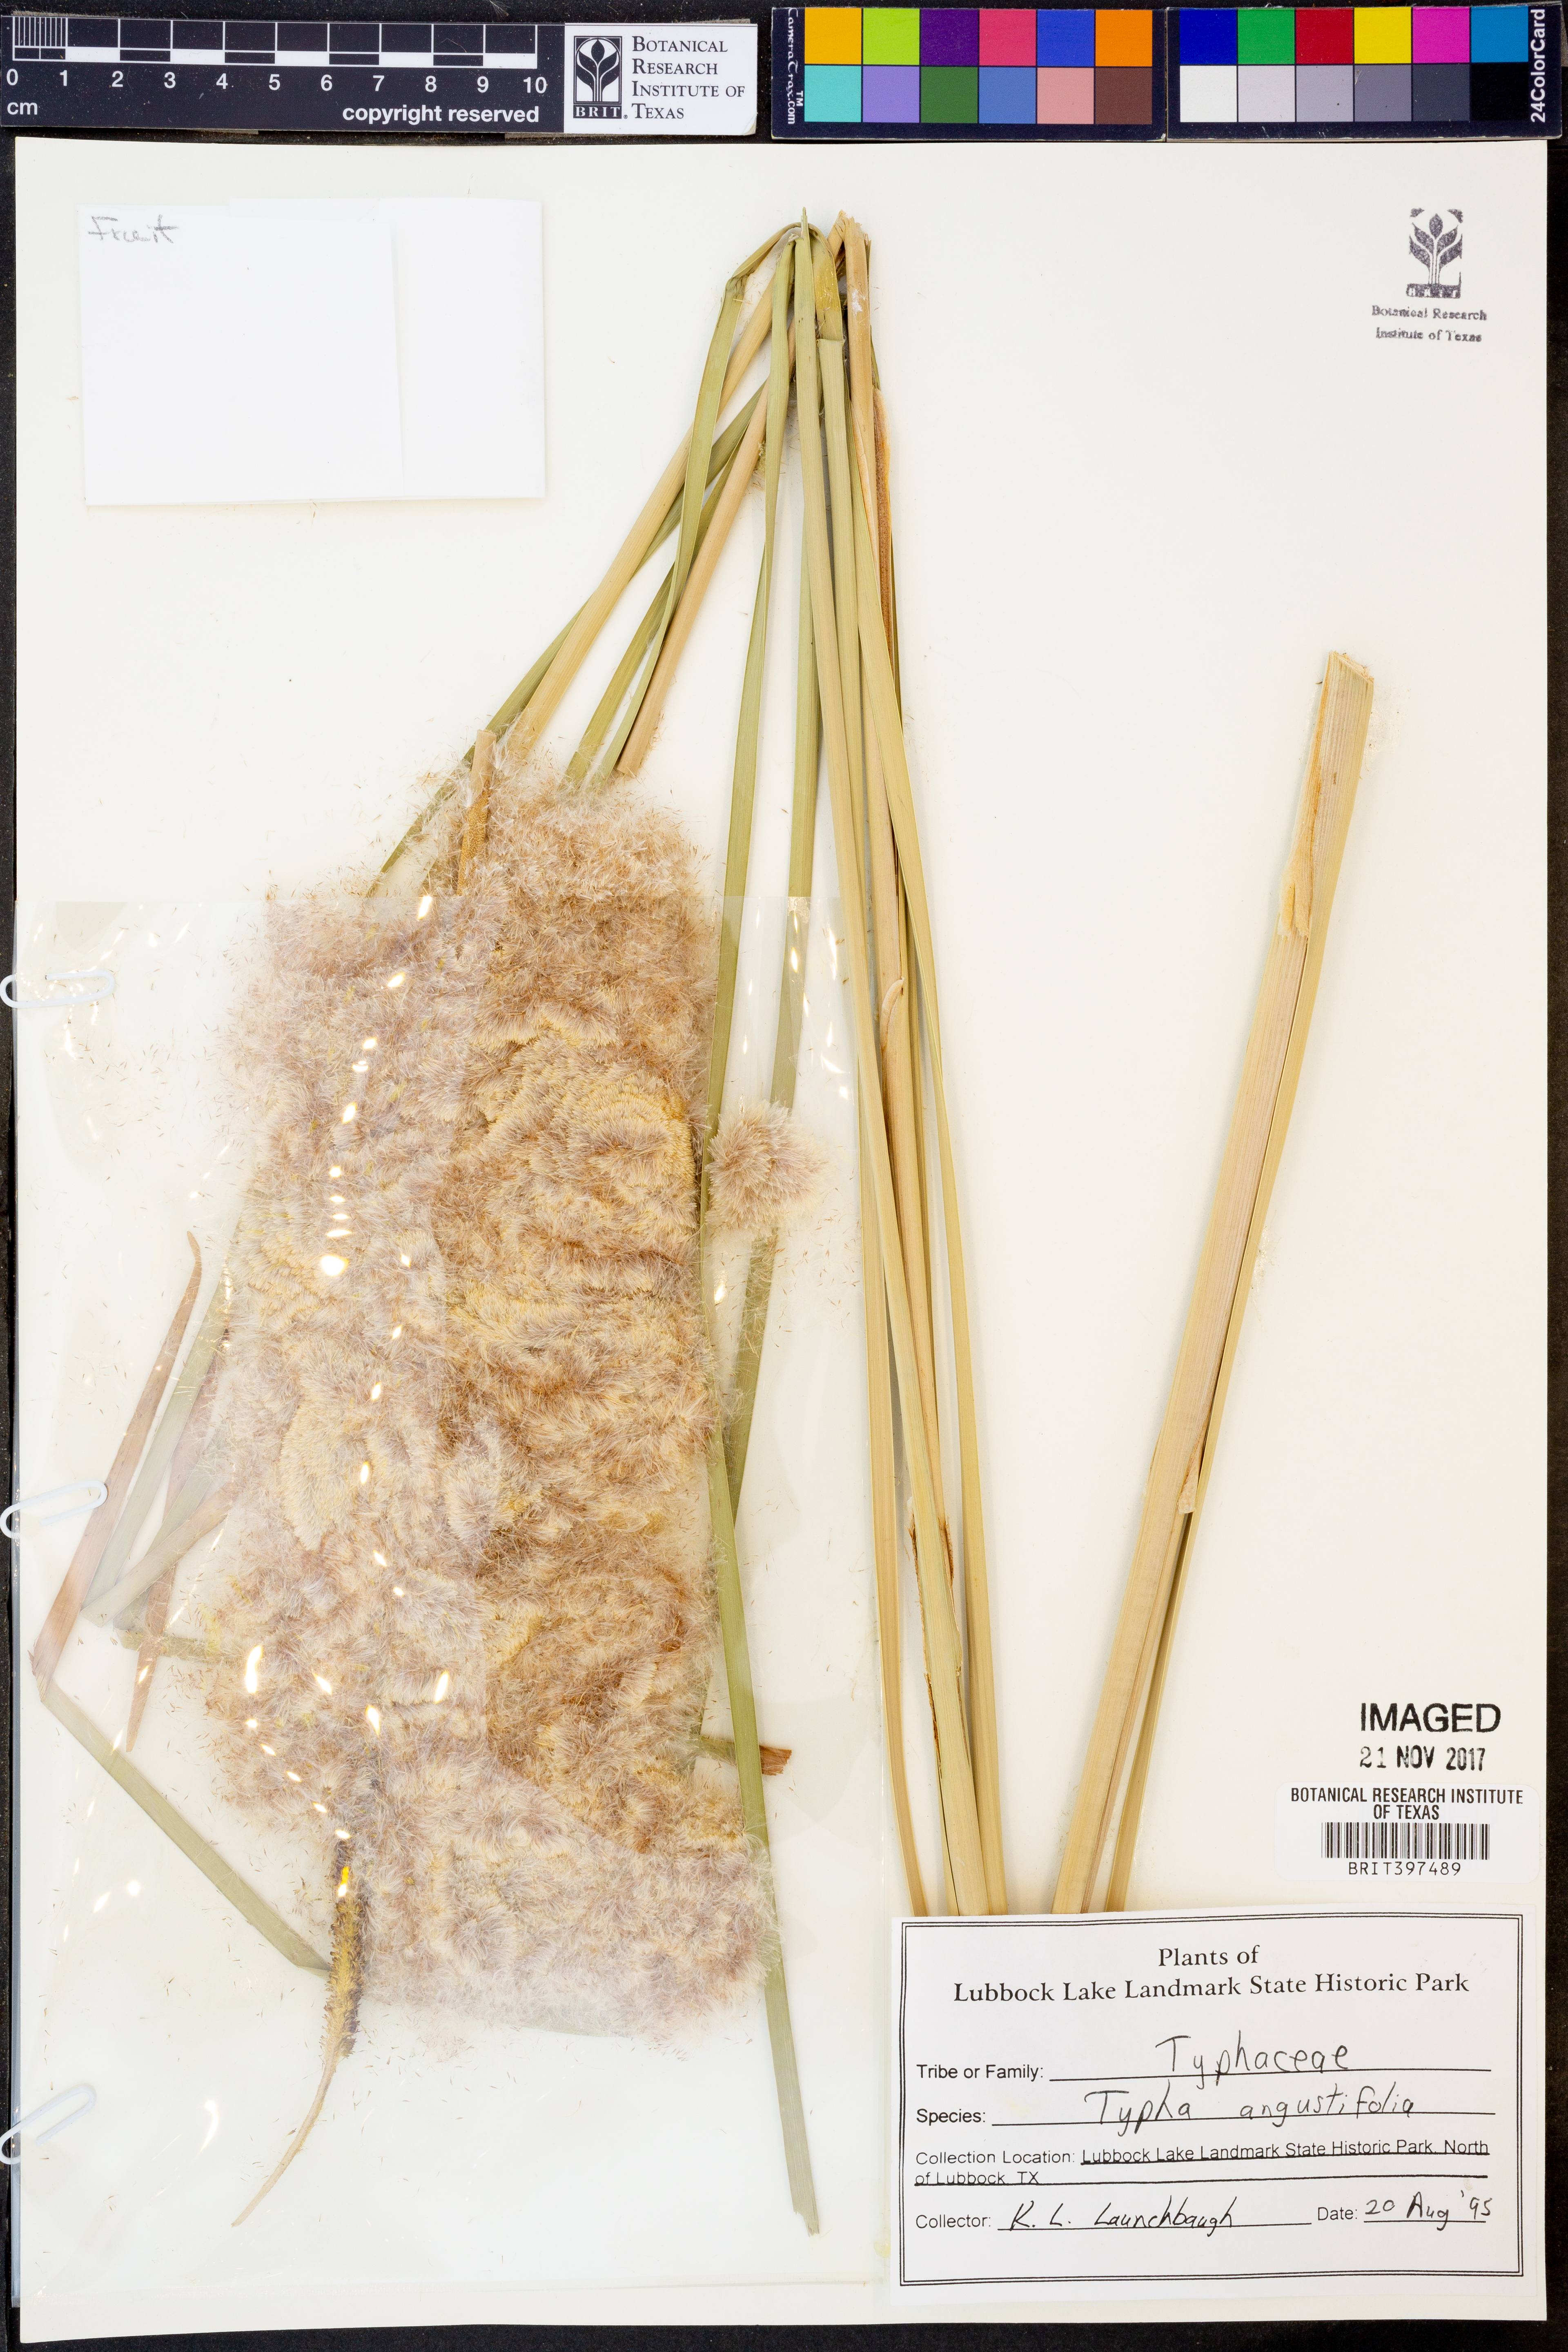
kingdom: Plantae
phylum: Tracheophyta
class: Liliopsida
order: Poales
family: Typhaceae
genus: Typha
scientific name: Typha angustifolia
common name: Lesser bulrush
